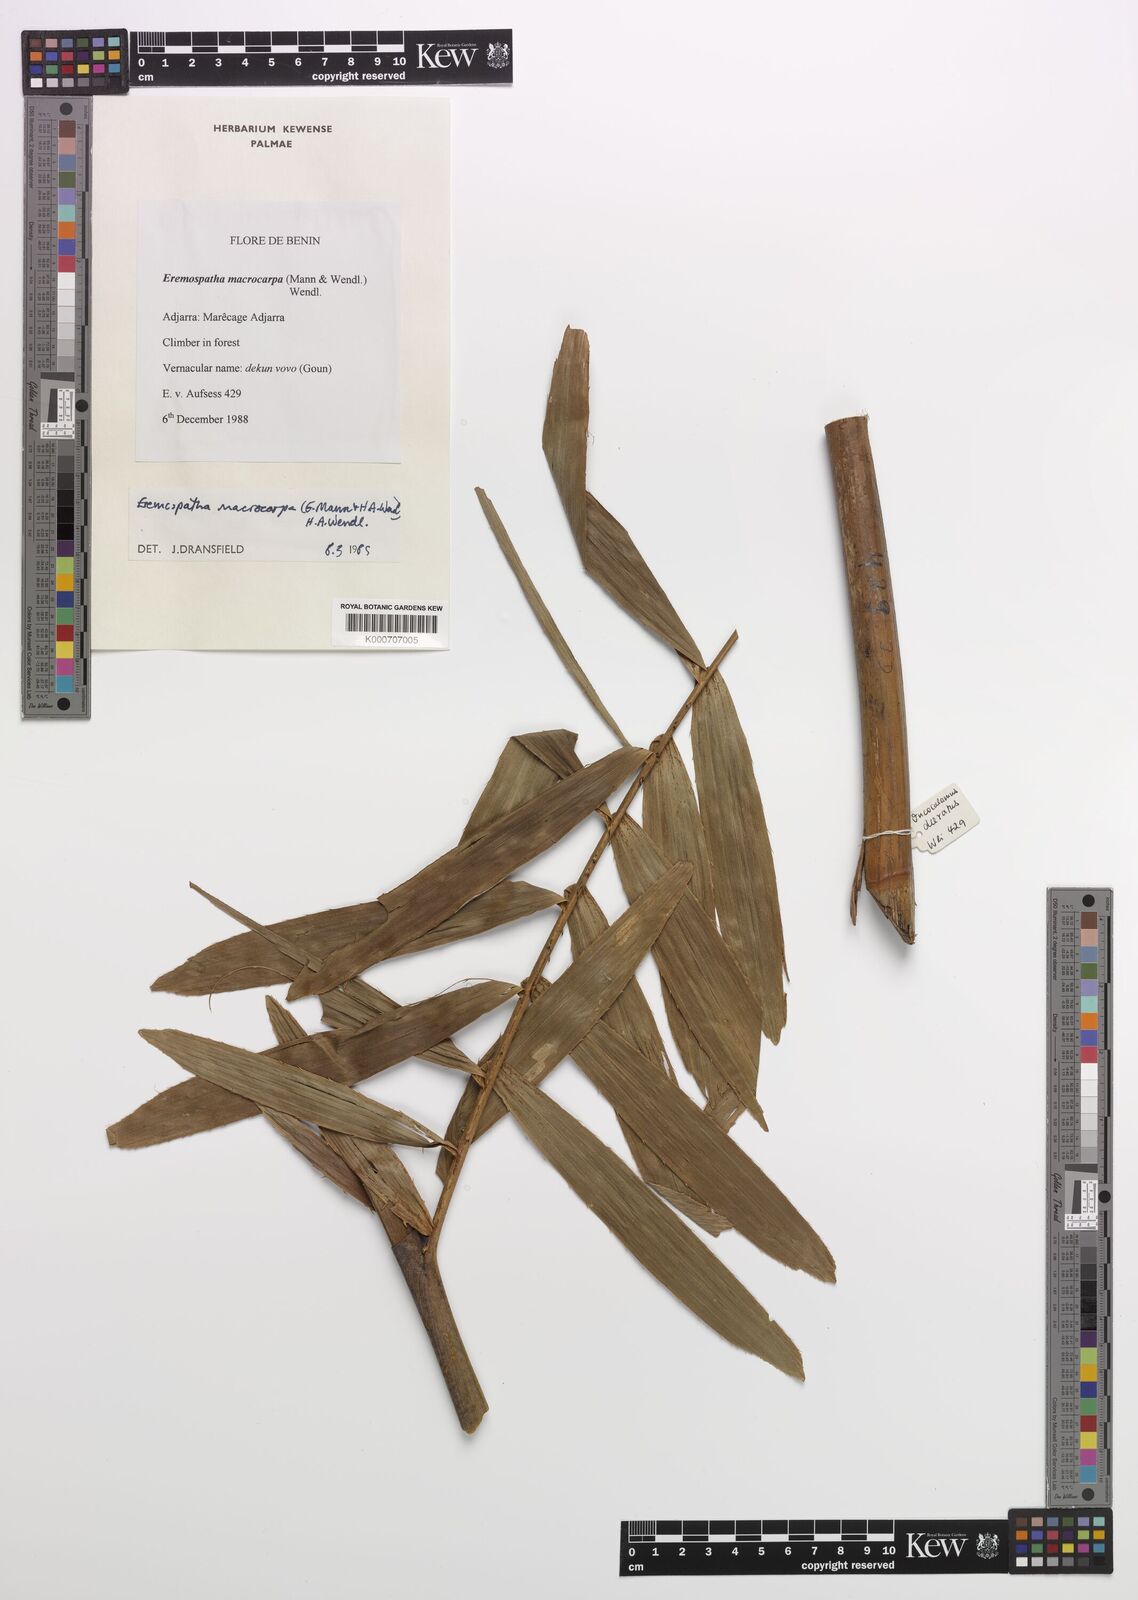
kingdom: Plantae
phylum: Tracheophyta
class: Liliopsida
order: Arecales
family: Arecaceae
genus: Eremospatha
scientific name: Eremospatha macrocarpa
